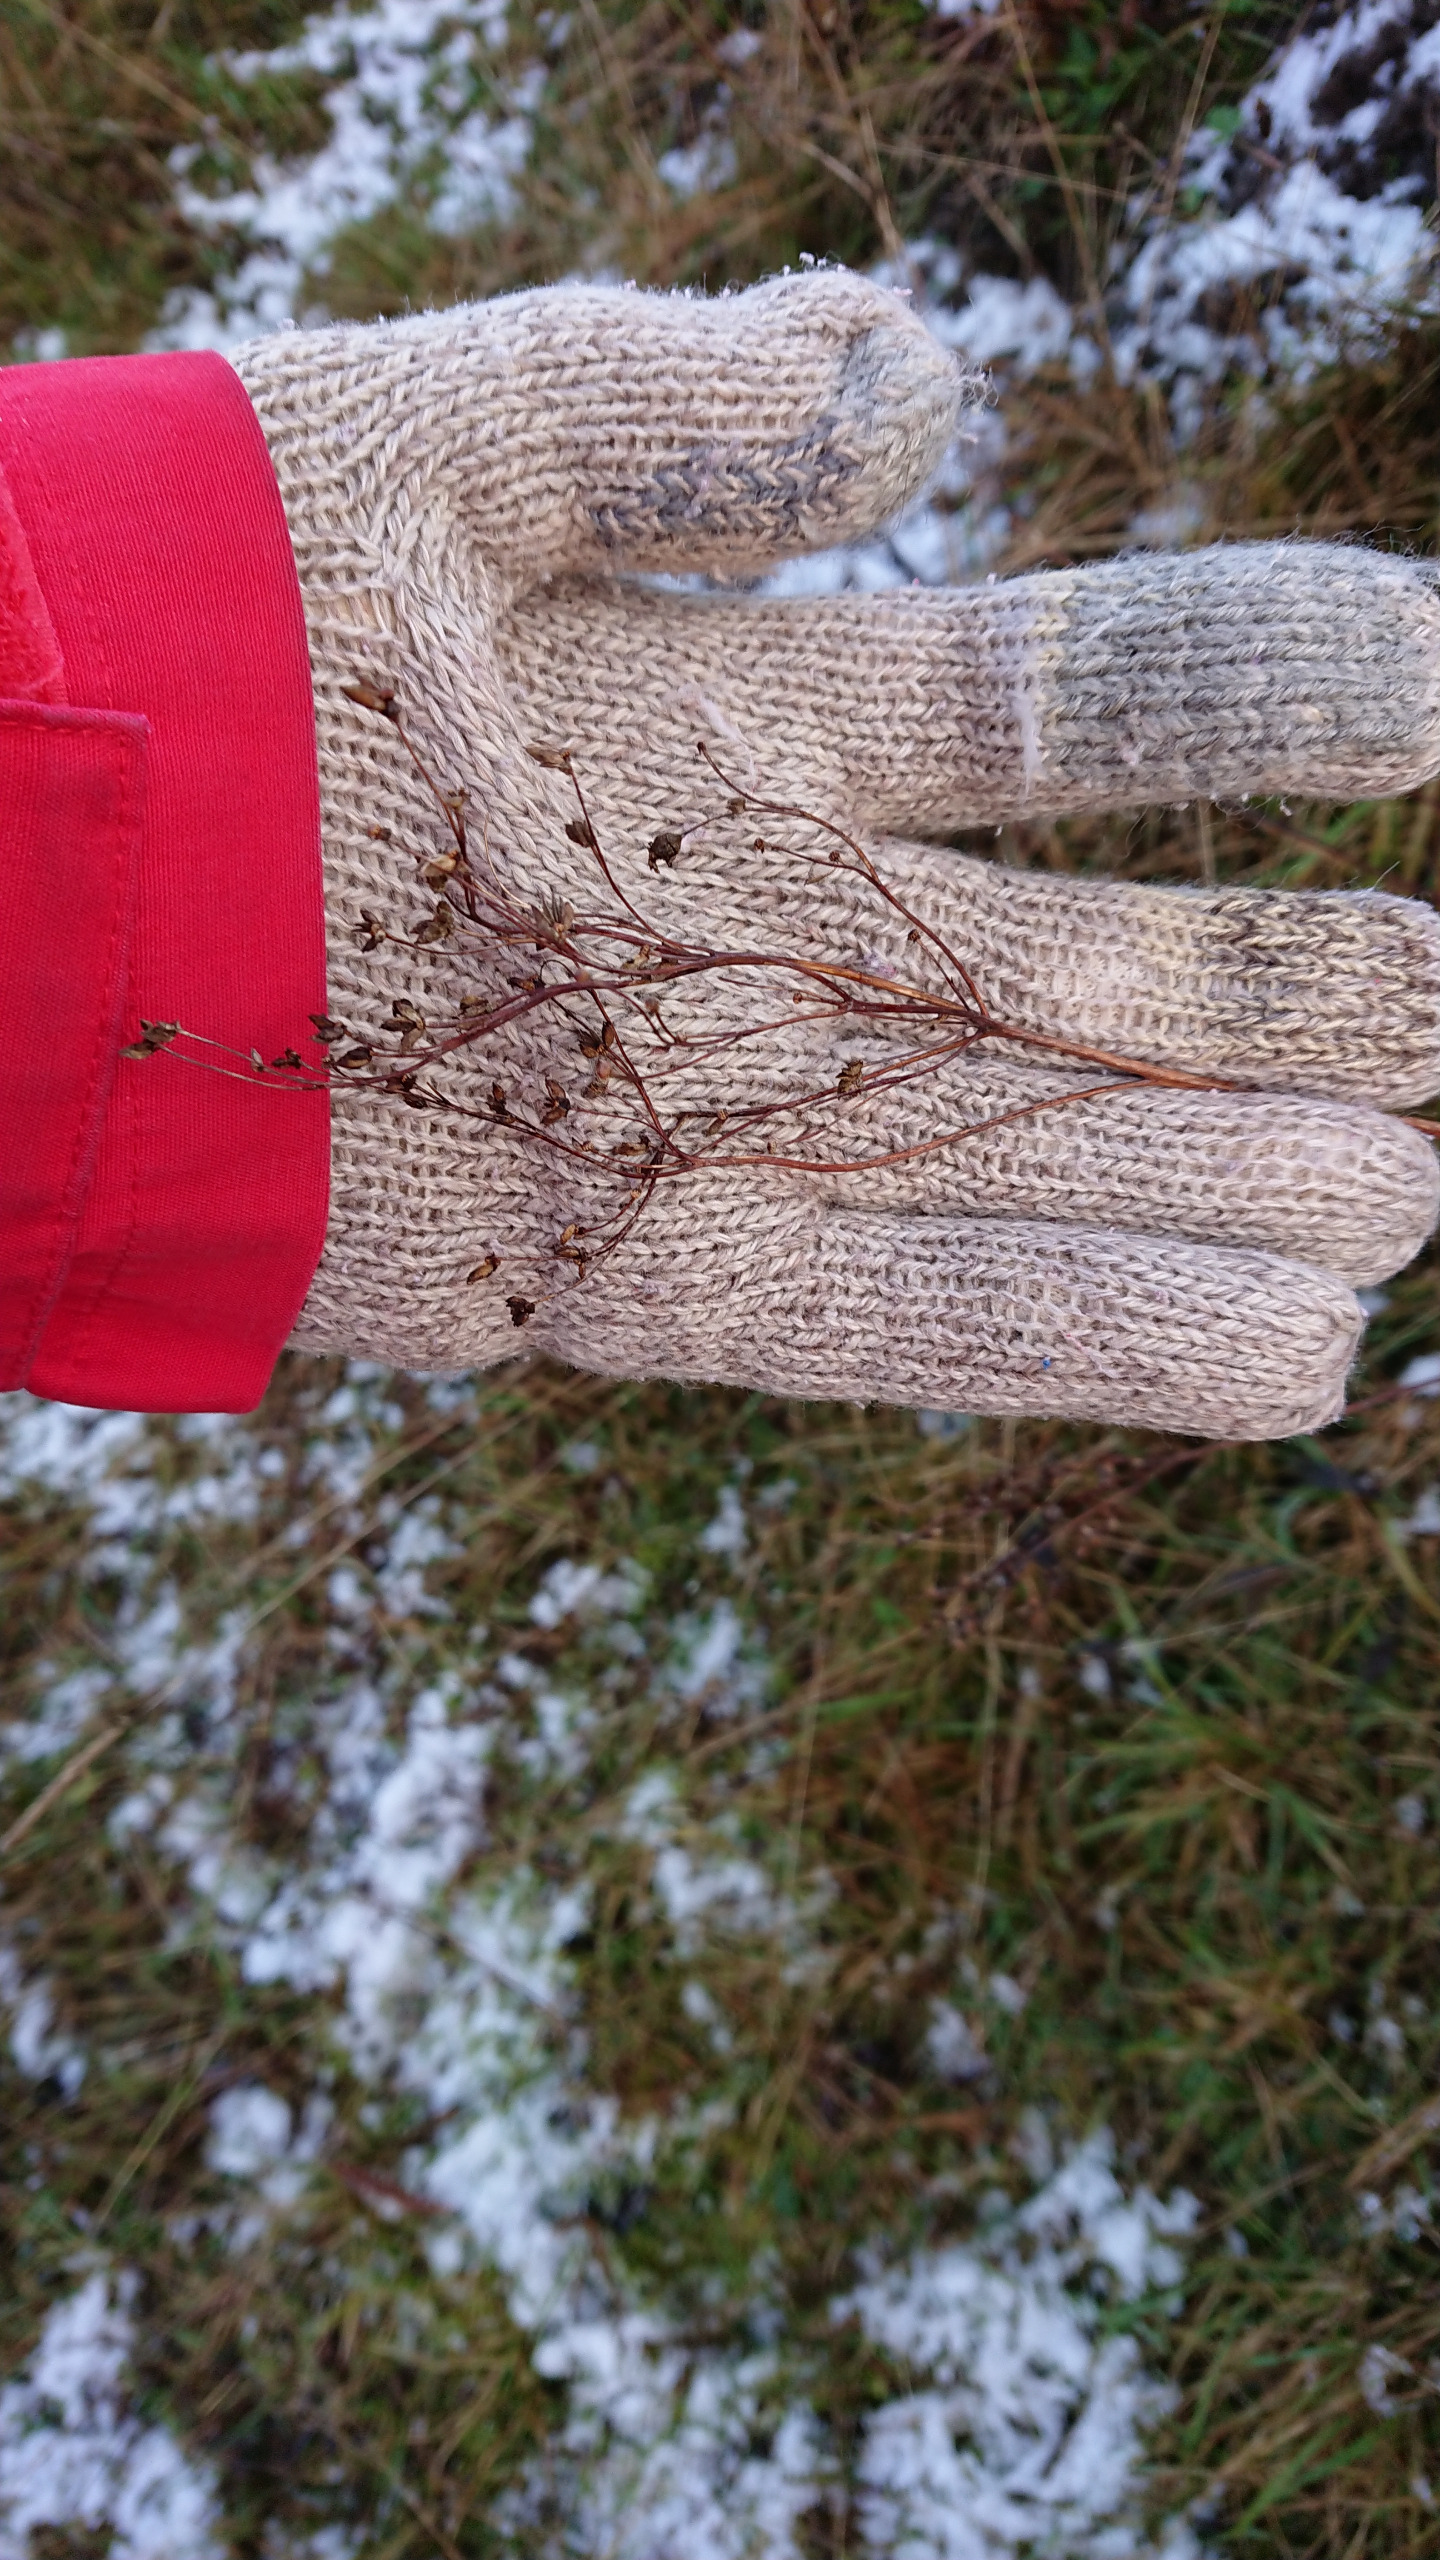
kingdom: Plantae
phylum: Tracheophyta
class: Magnoliopsida
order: Rosales
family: Rosaceae
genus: Filipendula
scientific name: Filipendula vulgaris
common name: Knoldet mjødurt
